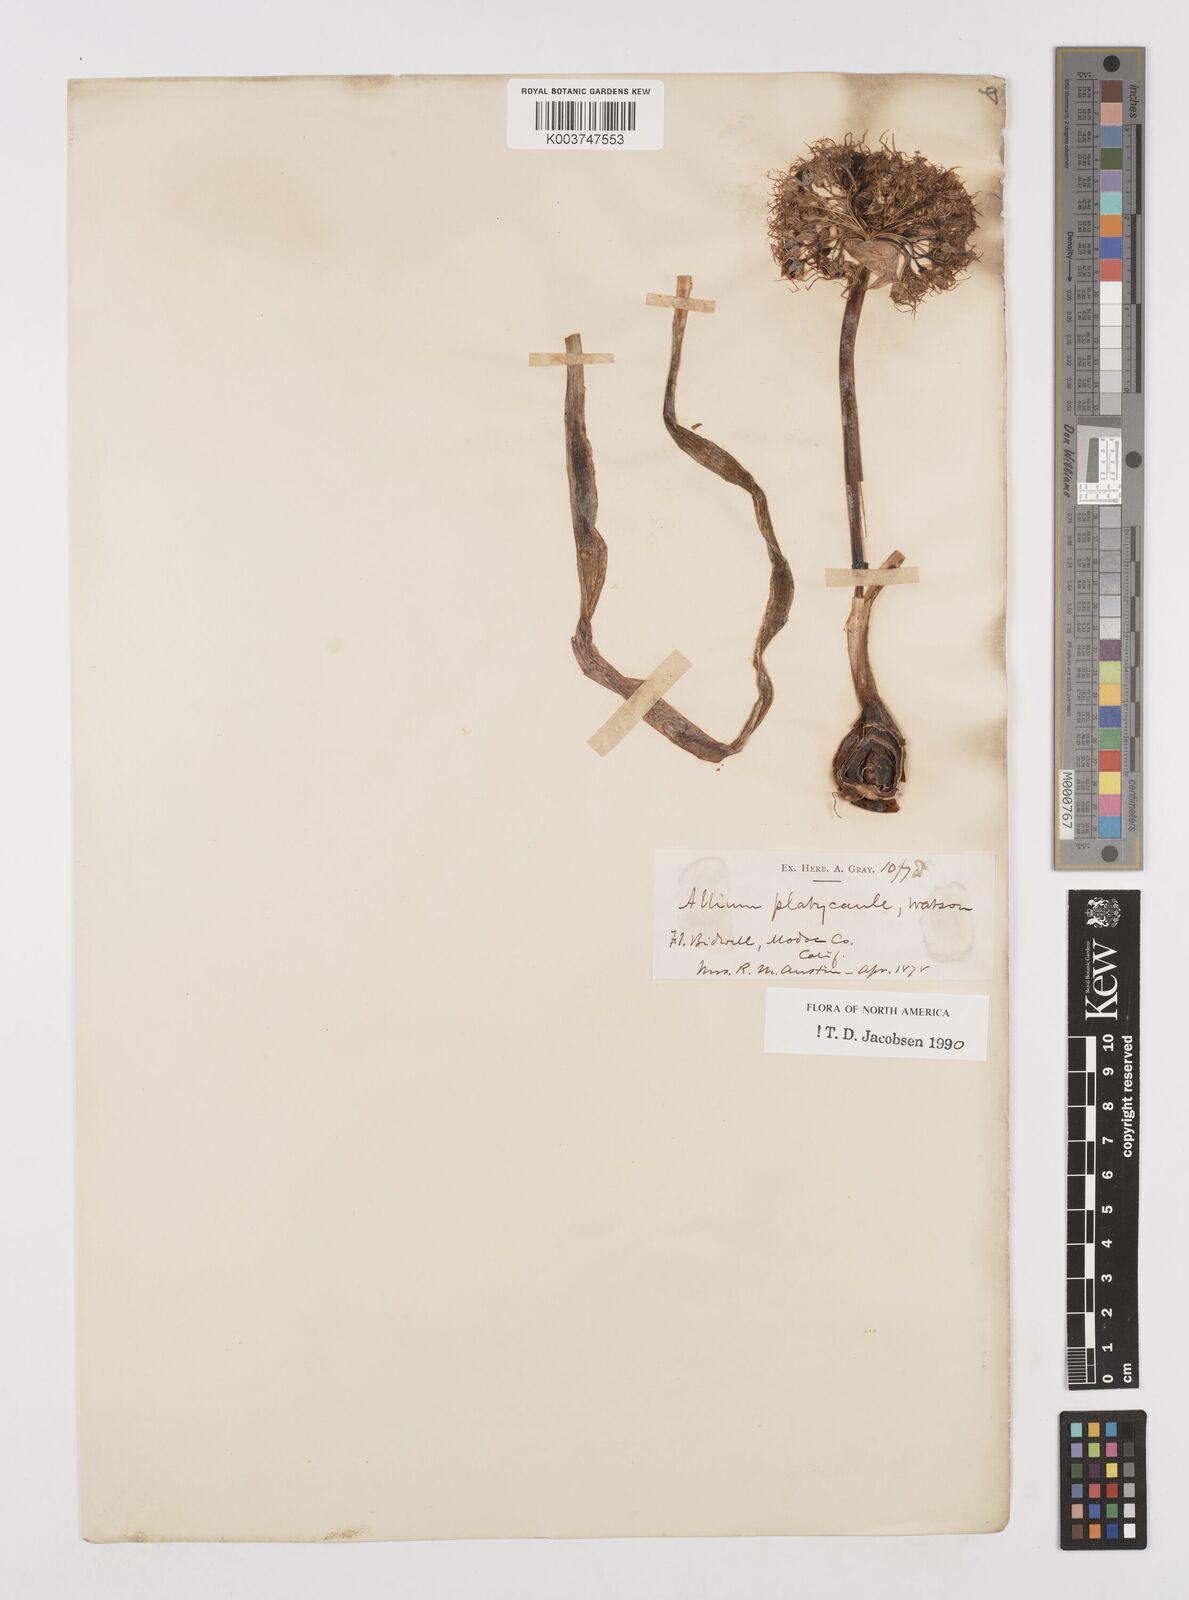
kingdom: Plantae
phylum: Tracheophyta
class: Liliopsida
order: Asparagales
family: Amaryllidaceae
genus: Allium
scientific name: Allium platycaule
